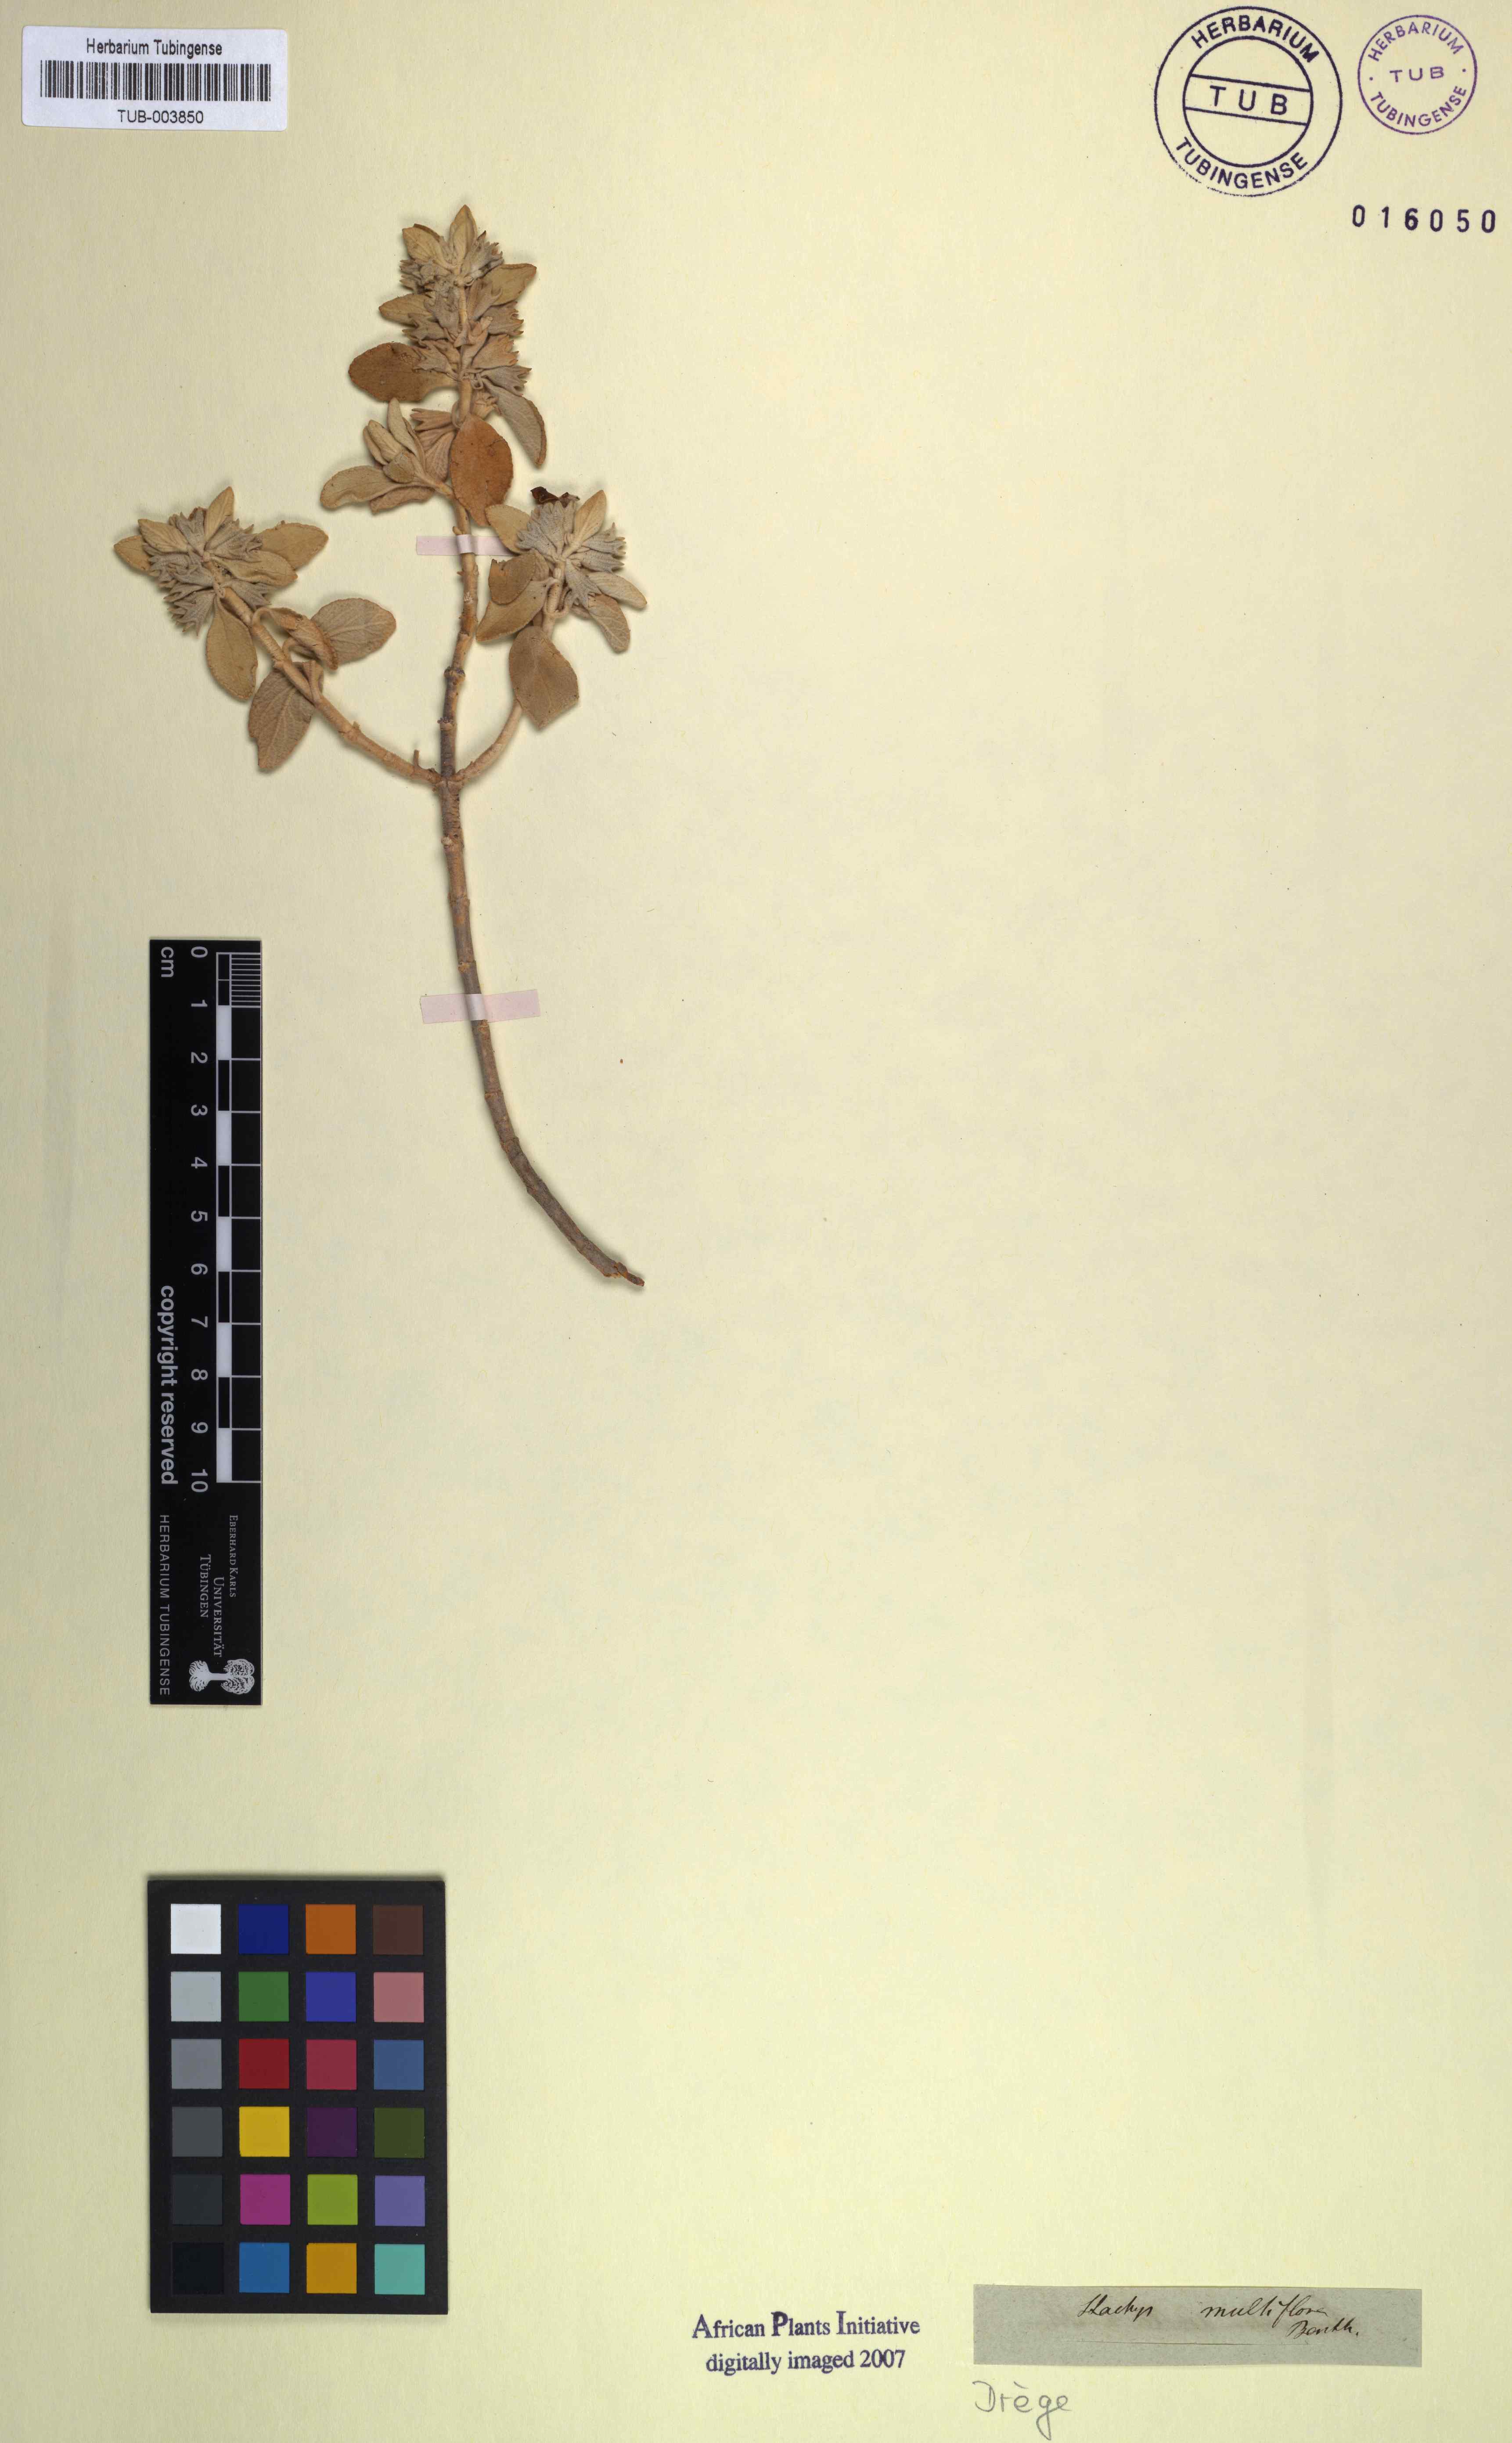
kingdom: Plantae
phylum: Tracheophyta
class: Magnoliopsida
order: Lamiales
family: Lamiaceae
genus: Stachys
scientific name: Stachys rugosa
